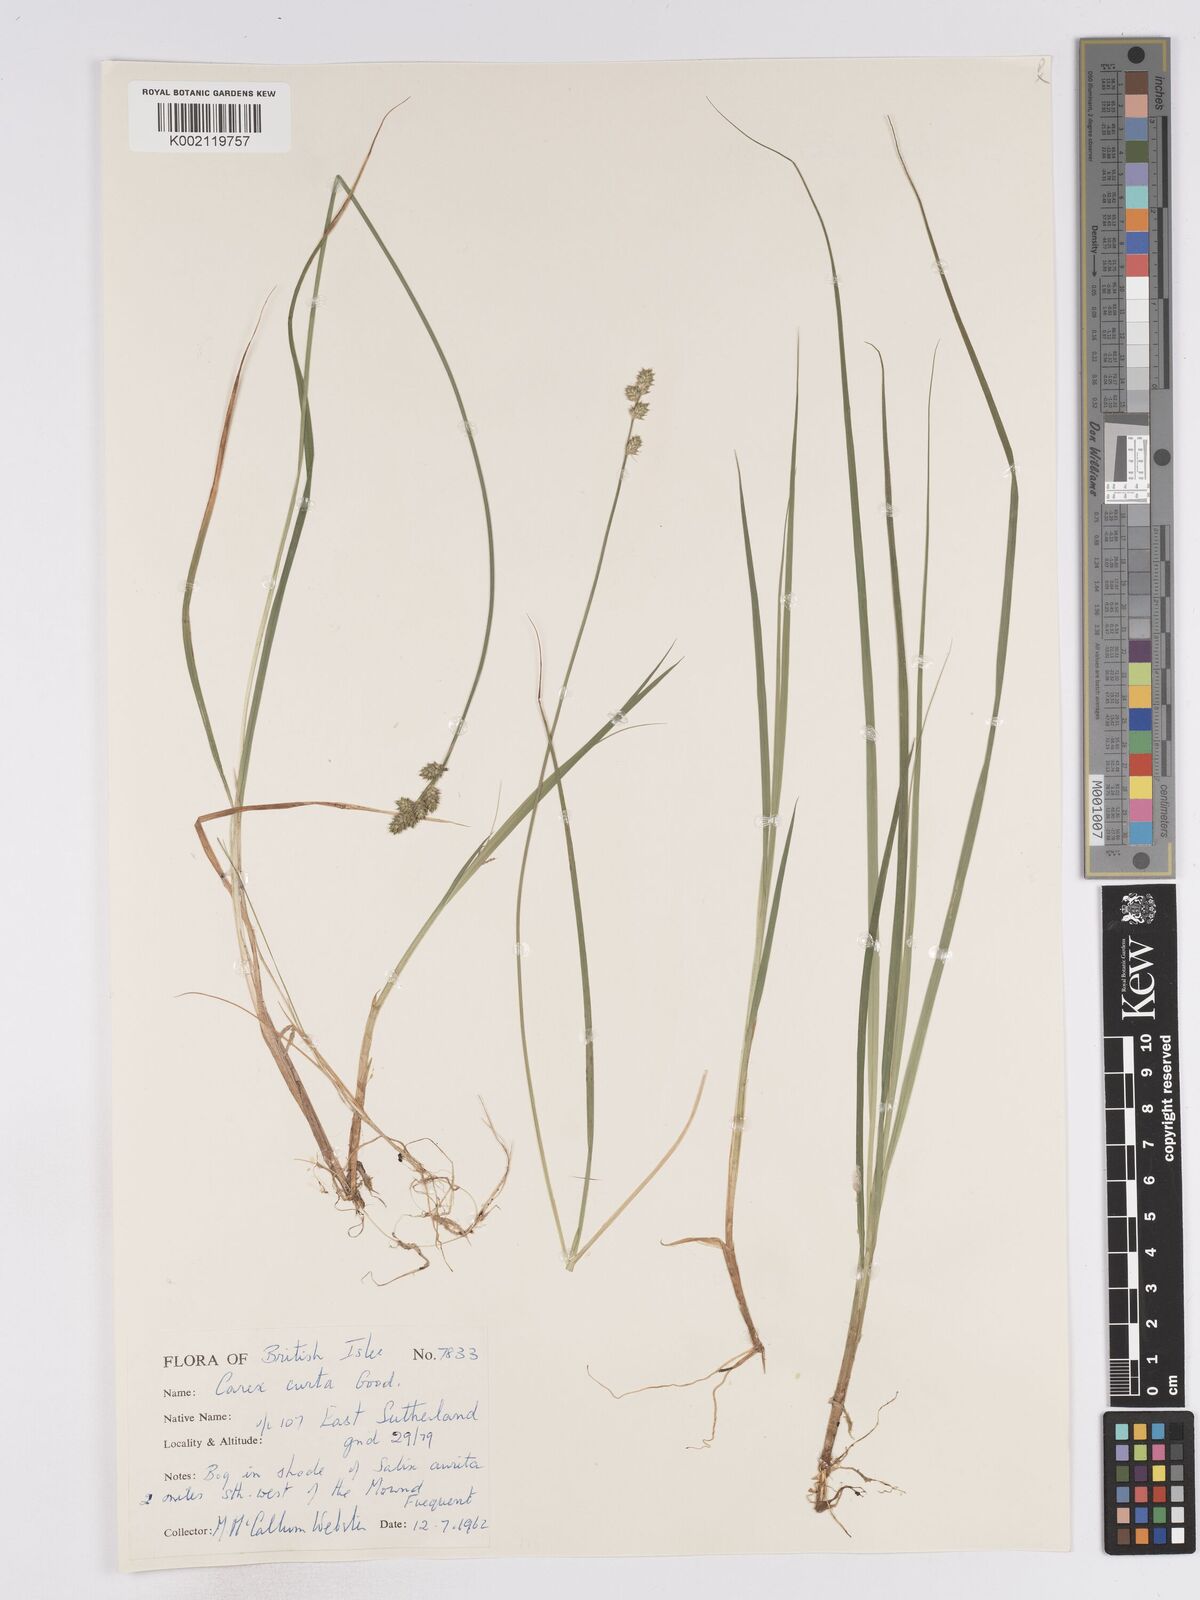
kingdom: Plantae
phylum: Tracheophyta
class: Liliopsida
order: Poales
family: Cyperaceae
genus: Carex
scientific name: Carex curta
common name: White sedge
